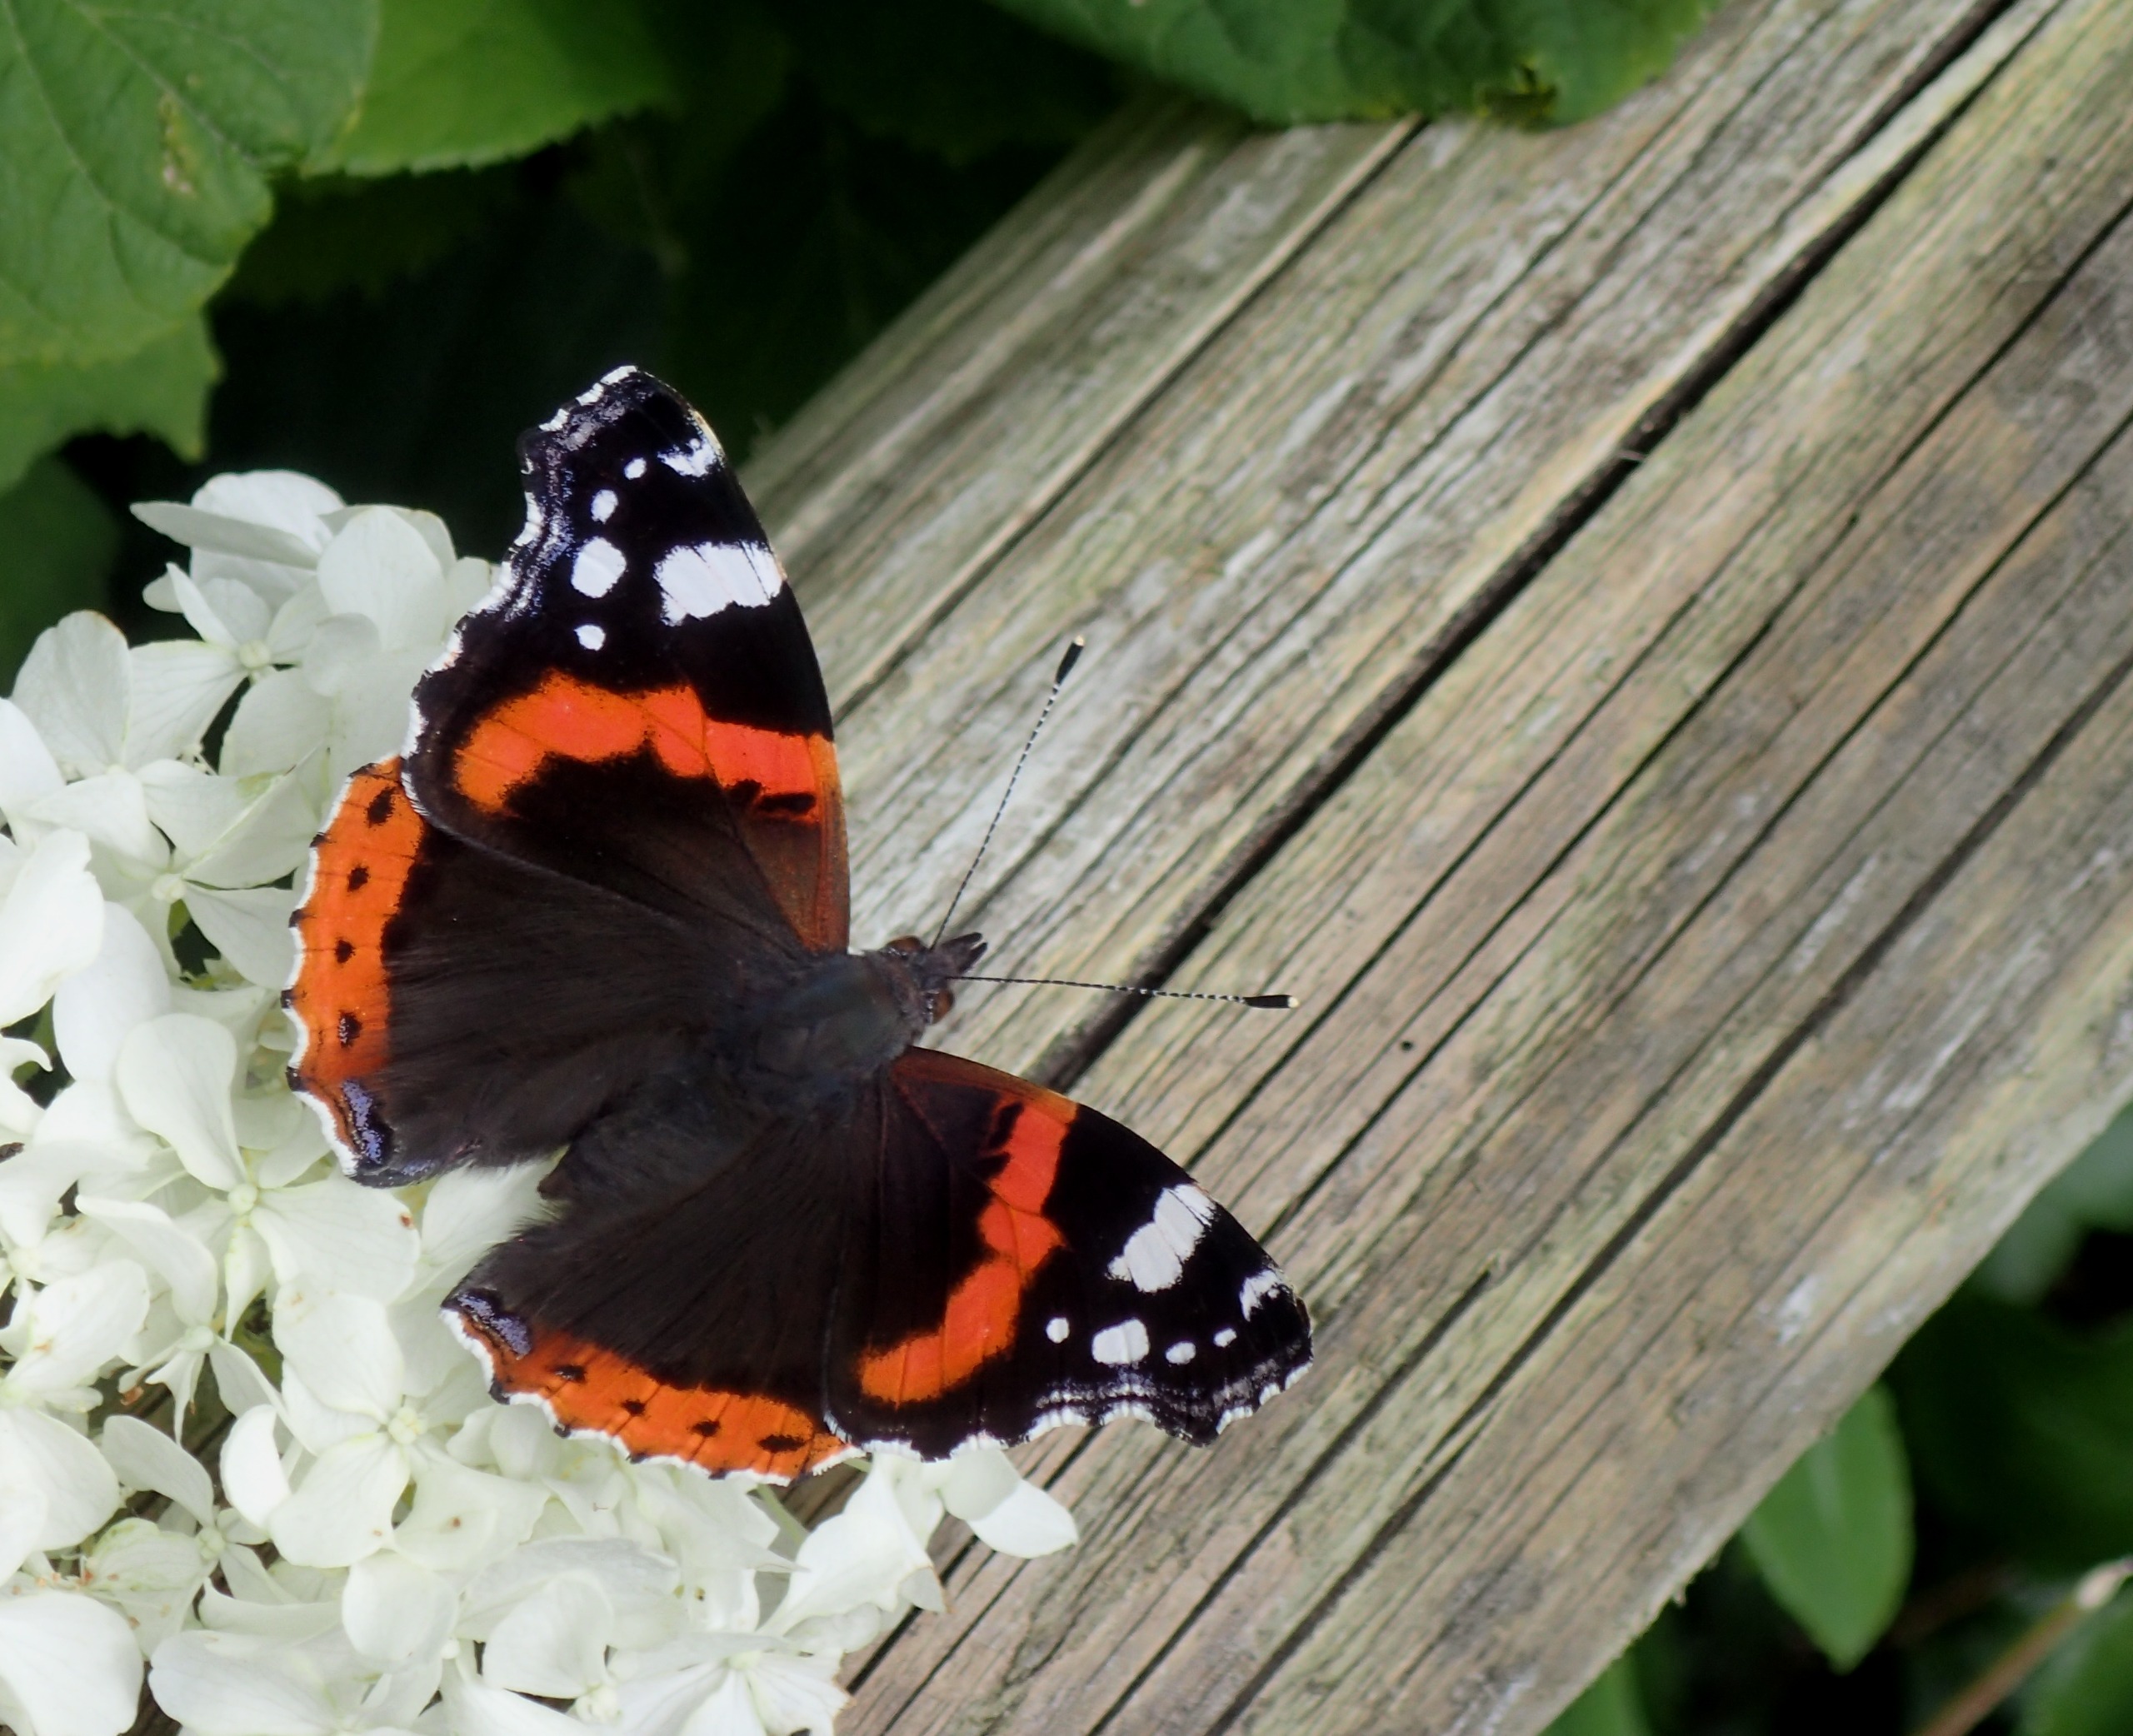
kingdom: Animalia
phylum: Arthropoda
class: Insecta
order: Lepidoptera
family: Nymphalidae
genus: Vanessa
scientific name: Vanessa atalanta
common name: Admiral
